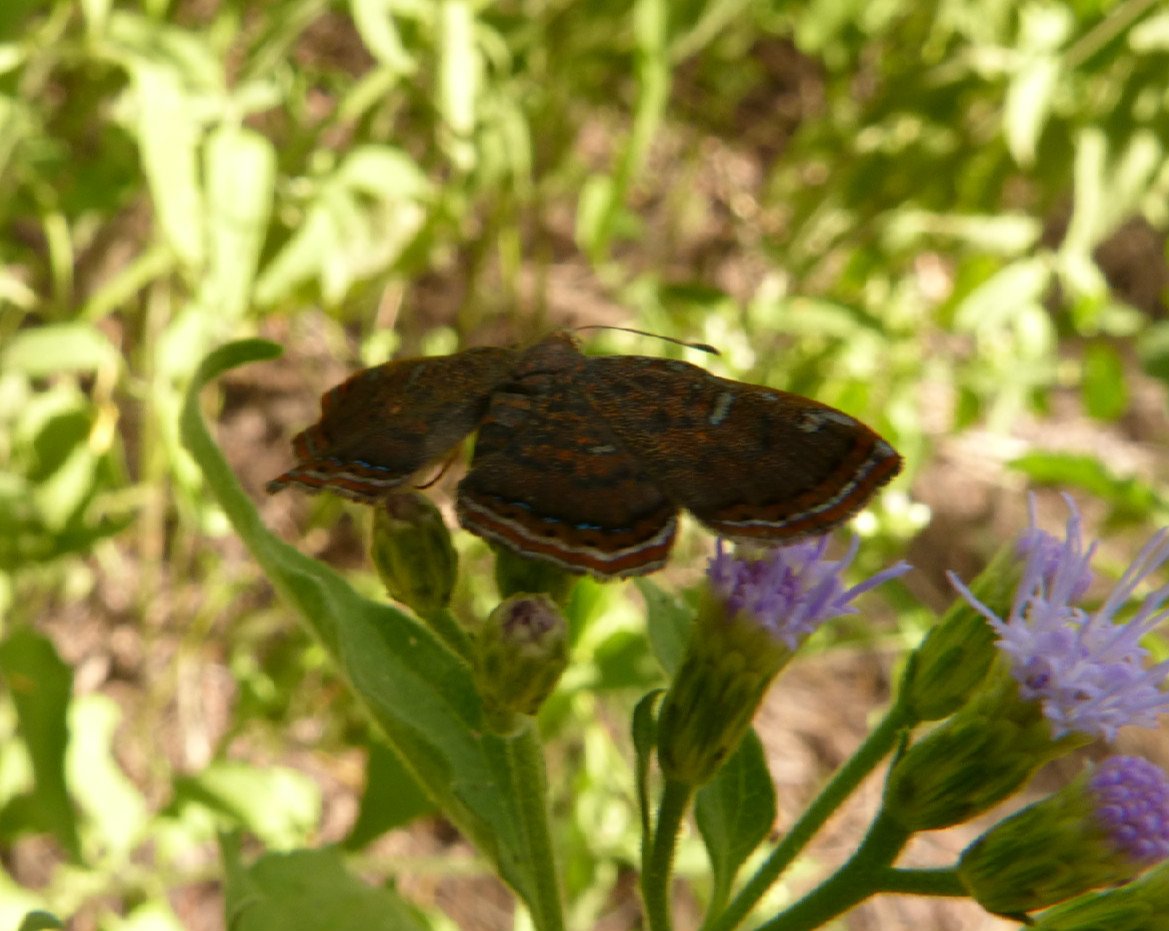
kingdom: Animalia
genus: Caria
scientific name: Caria ino
